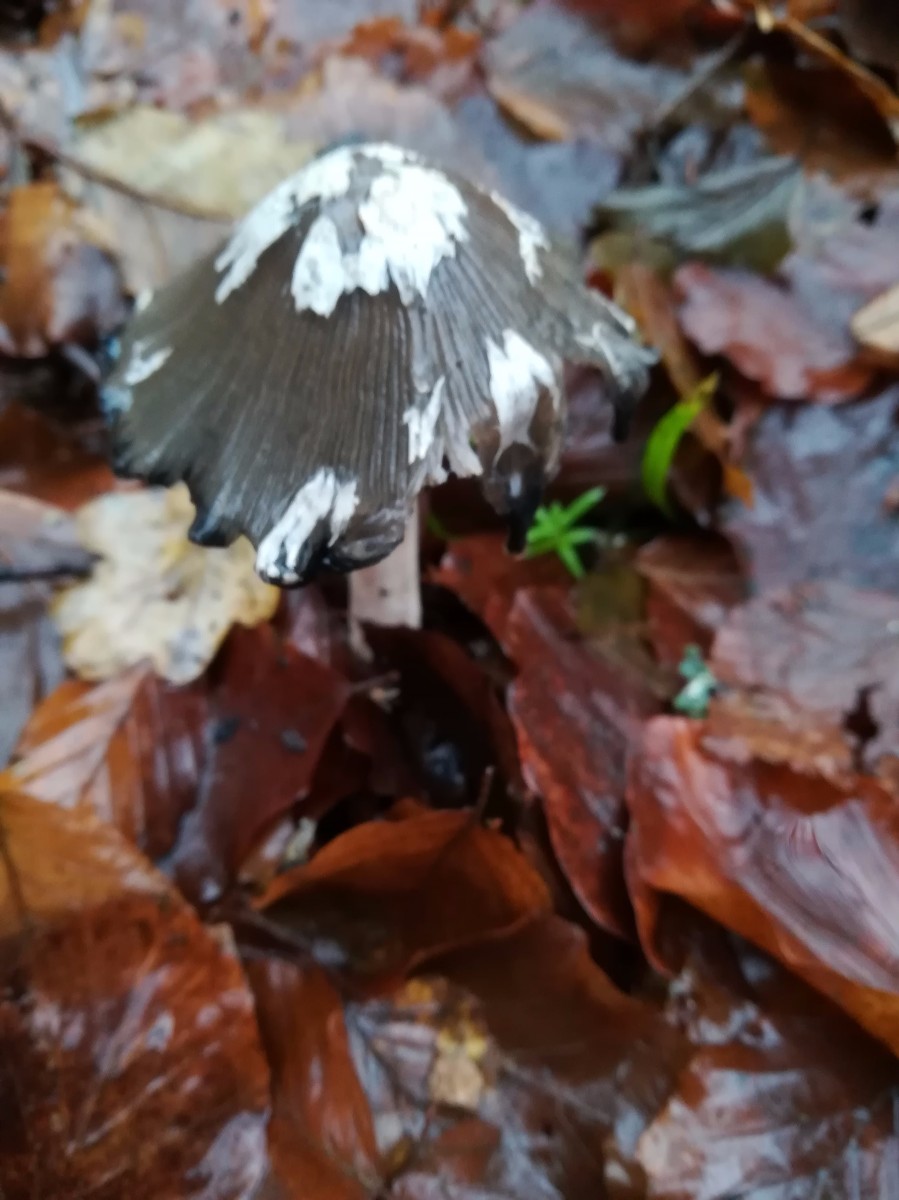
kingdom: Fungi
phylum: Basidiomycota
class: Agaricomycetes
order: Agaricales
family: Psathyrellaceae
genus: Coprinopsis
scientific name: Coprinopsis picacea
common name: skade-blækhat
